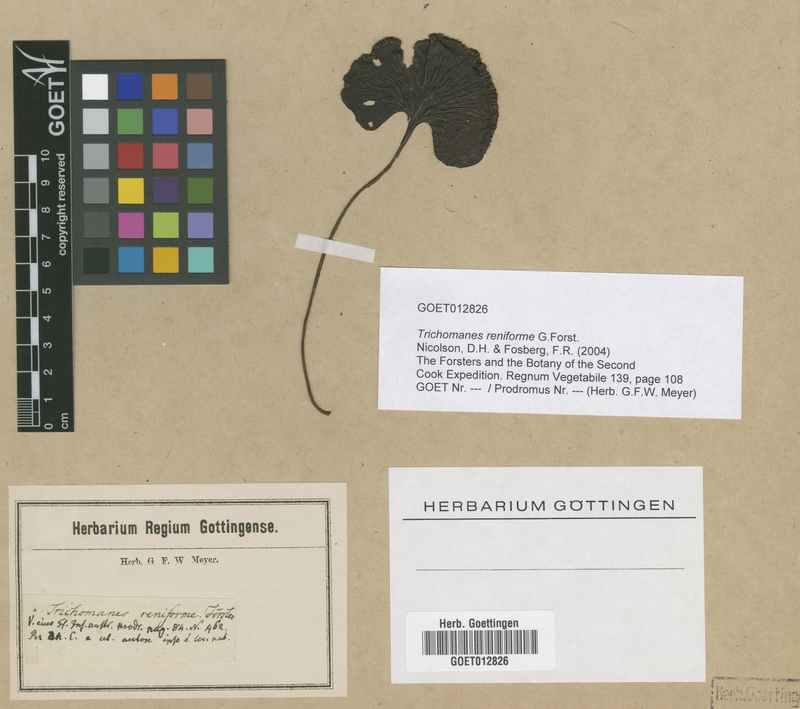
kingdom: Plantae
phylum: Tracheophyta
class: Polypodiopsida
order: Hymenophyllales
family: Hymenophyllaceae
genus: Hymenophyllum
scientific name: Hymenophyllum nephrophyllum
